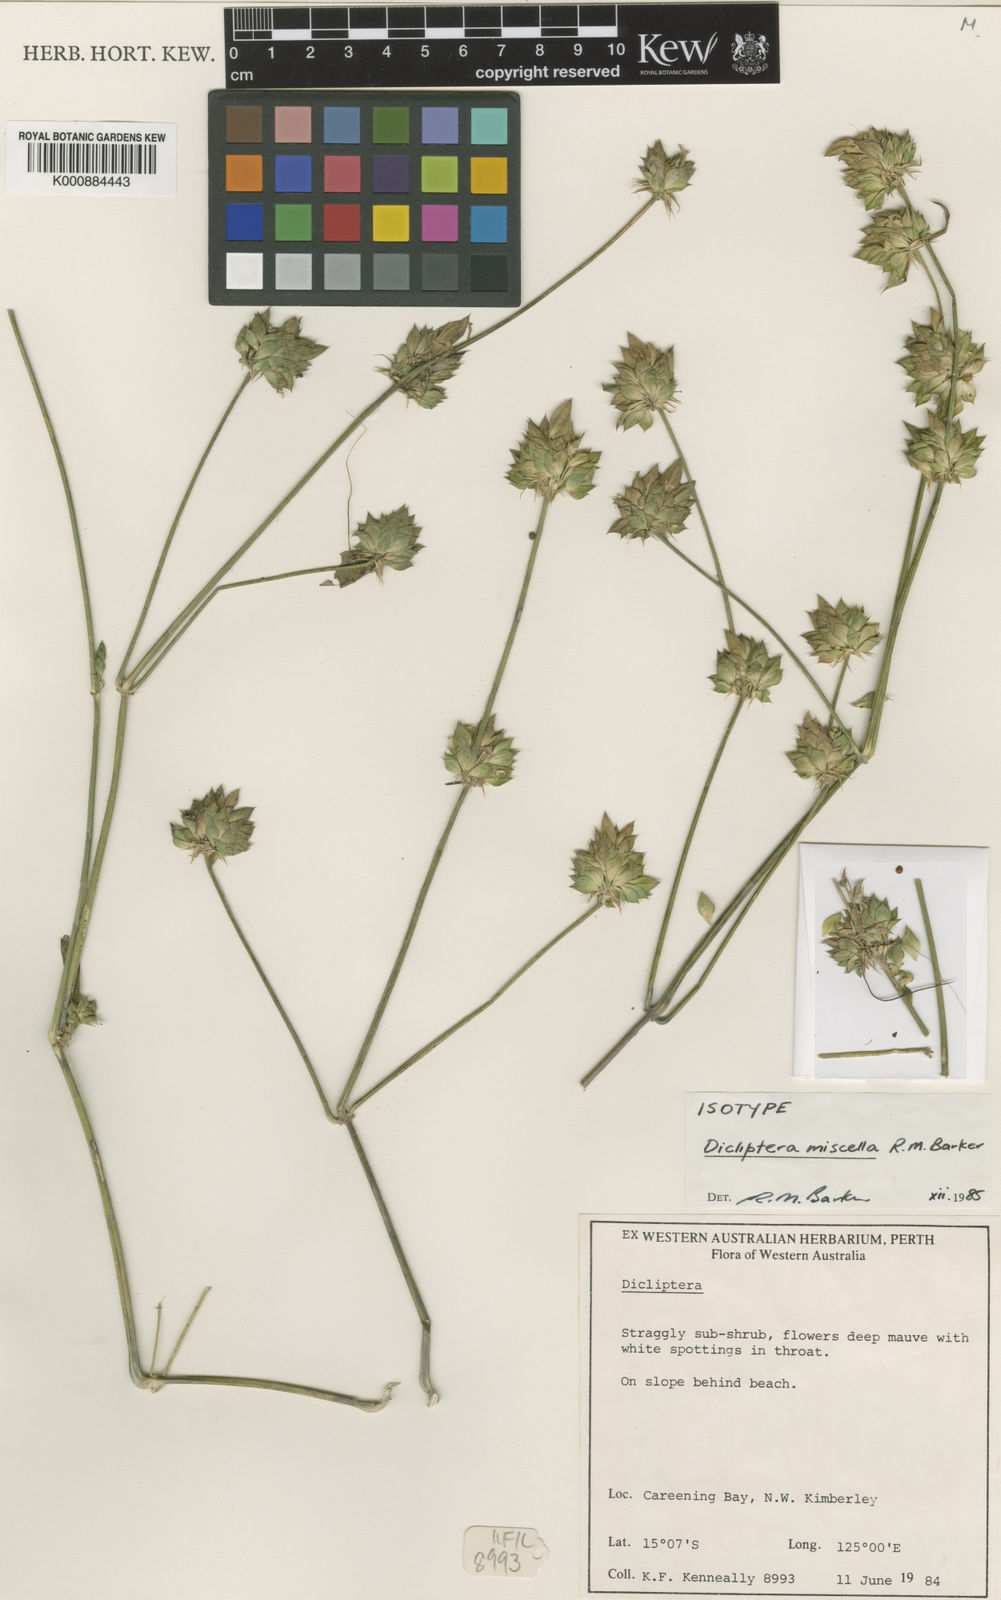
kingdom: Plantae
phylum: Tracheophyta
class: Magnoliopsida
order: Lamiales
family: Acanthaceae
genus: Dicliptera
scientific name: Dicliptera miscella
